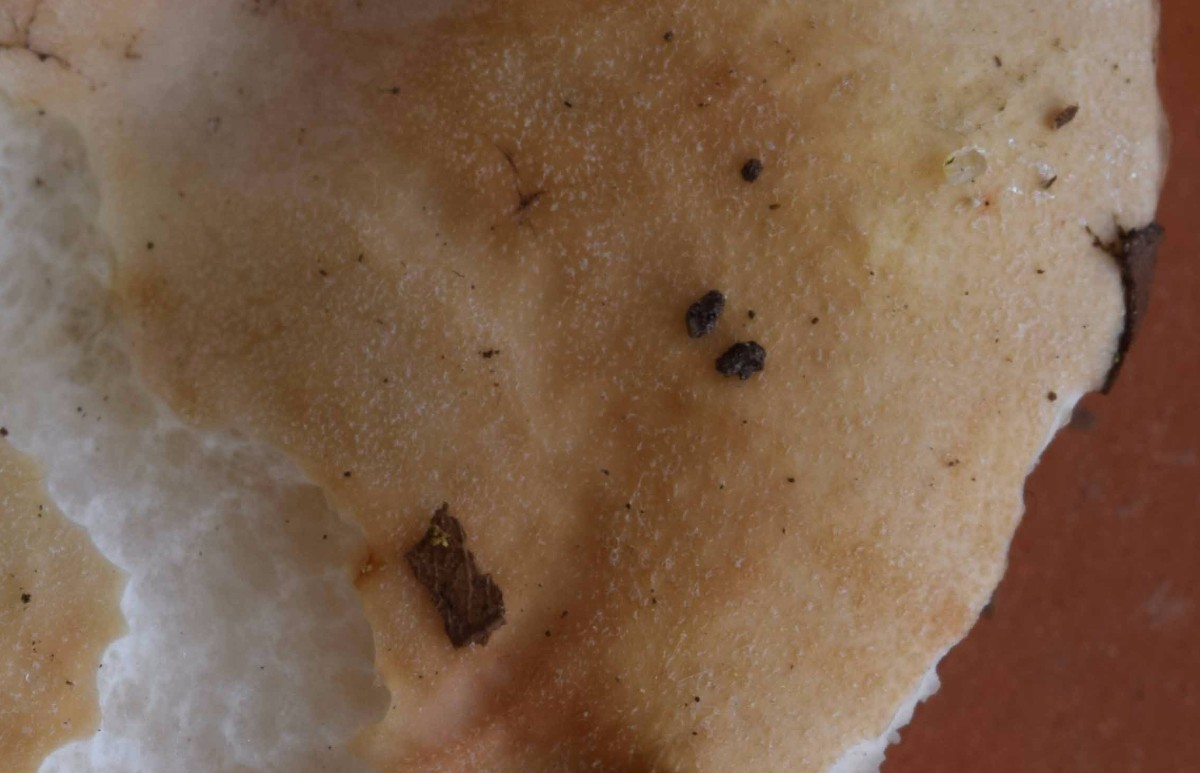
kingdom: Fungi
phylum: Basidiomycota
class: Agaricomycetes
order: Russulales
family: Russulaceae
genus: Russula
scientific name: Russula roseoaurantia
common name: kornet skørhat
